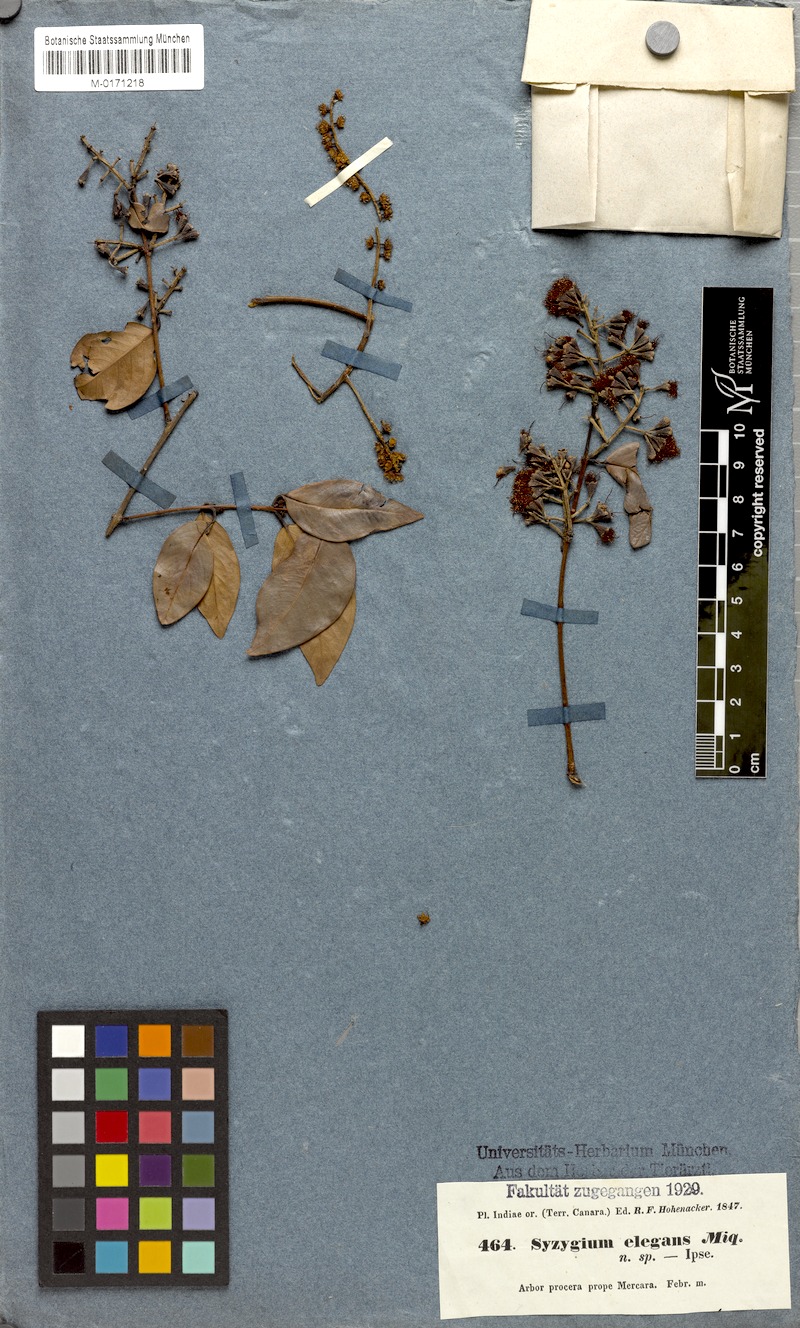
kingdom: Plantae
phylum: Tracheophyta
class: Magnoliopsida
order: Myrtales
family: Myrtaceae
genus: Syzygium
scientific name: Syzygium
